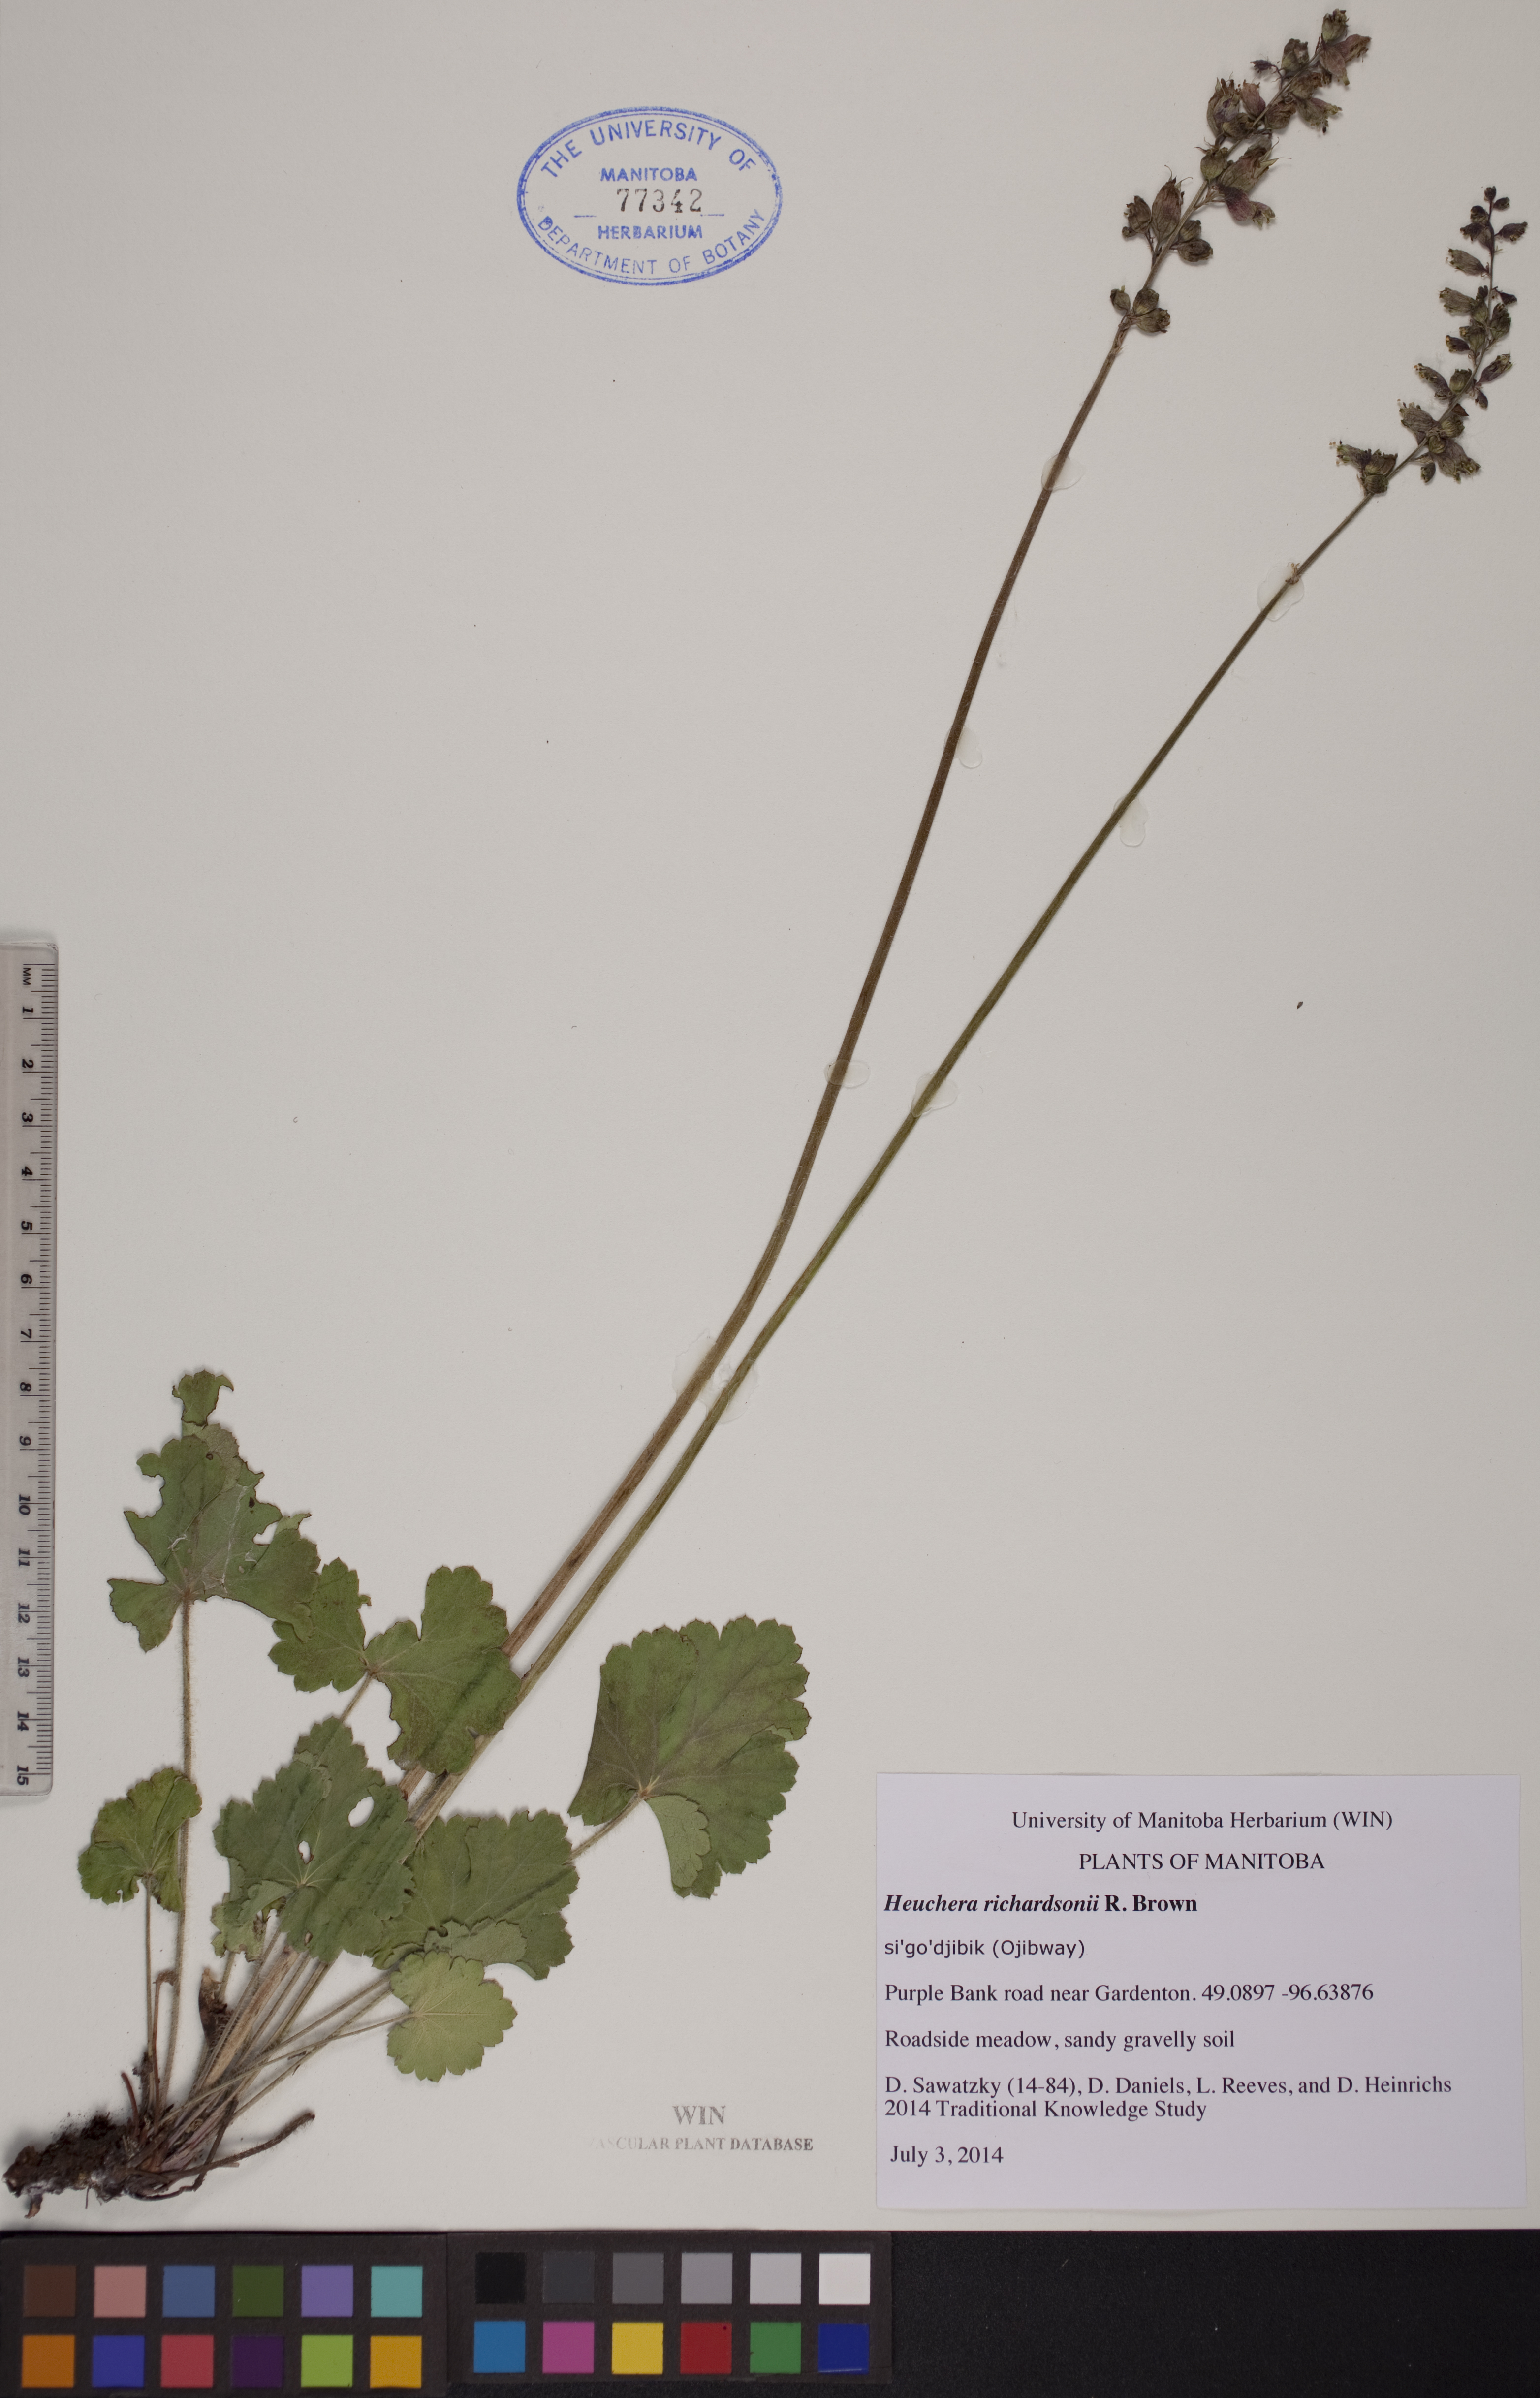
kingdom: Plantae
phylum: Tracheophyta
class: Magnoliopsida
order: Saxifragales
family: Saxifragaceae
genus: Heuchera
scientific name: Heuchera richardsonii
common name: Richardson's alumroot
